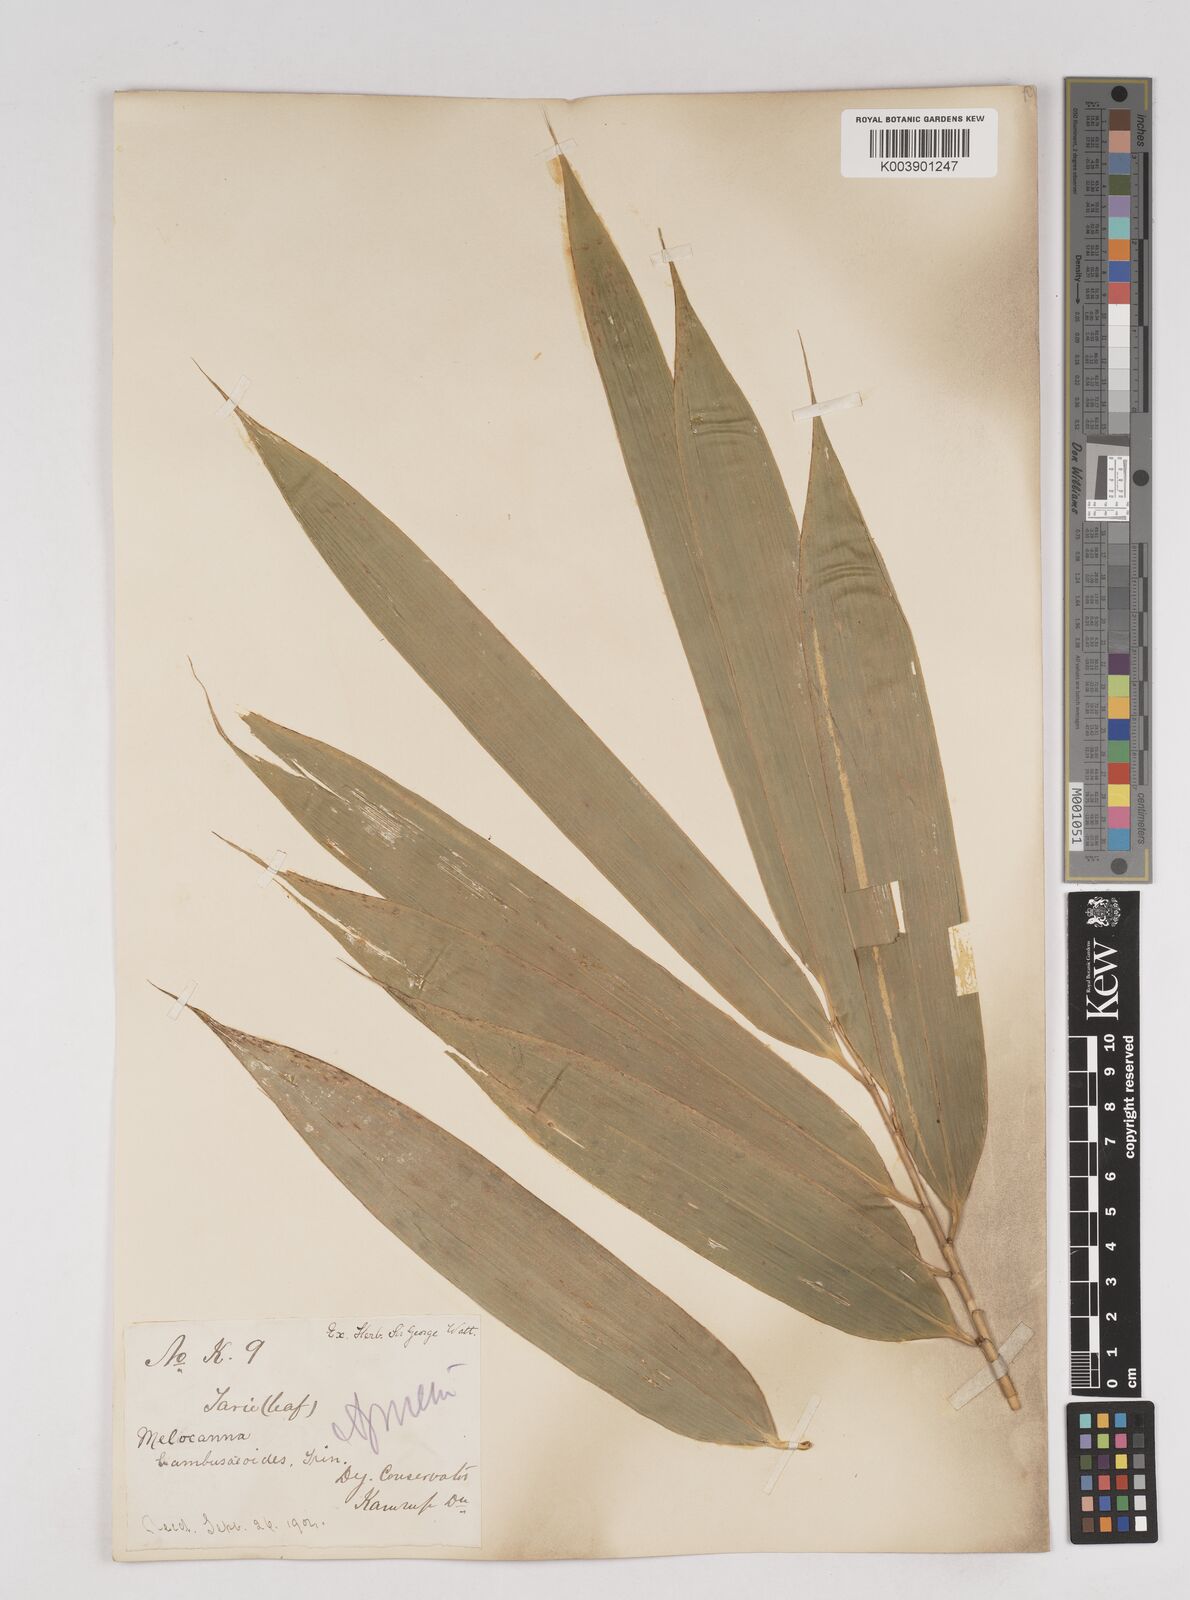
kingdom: Plantae
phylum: Tracheophyta
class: Liliopsida
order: Poales
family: Poaceae
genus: Melocanna
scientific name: Melocanna baccifera
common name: Berry bamboo
